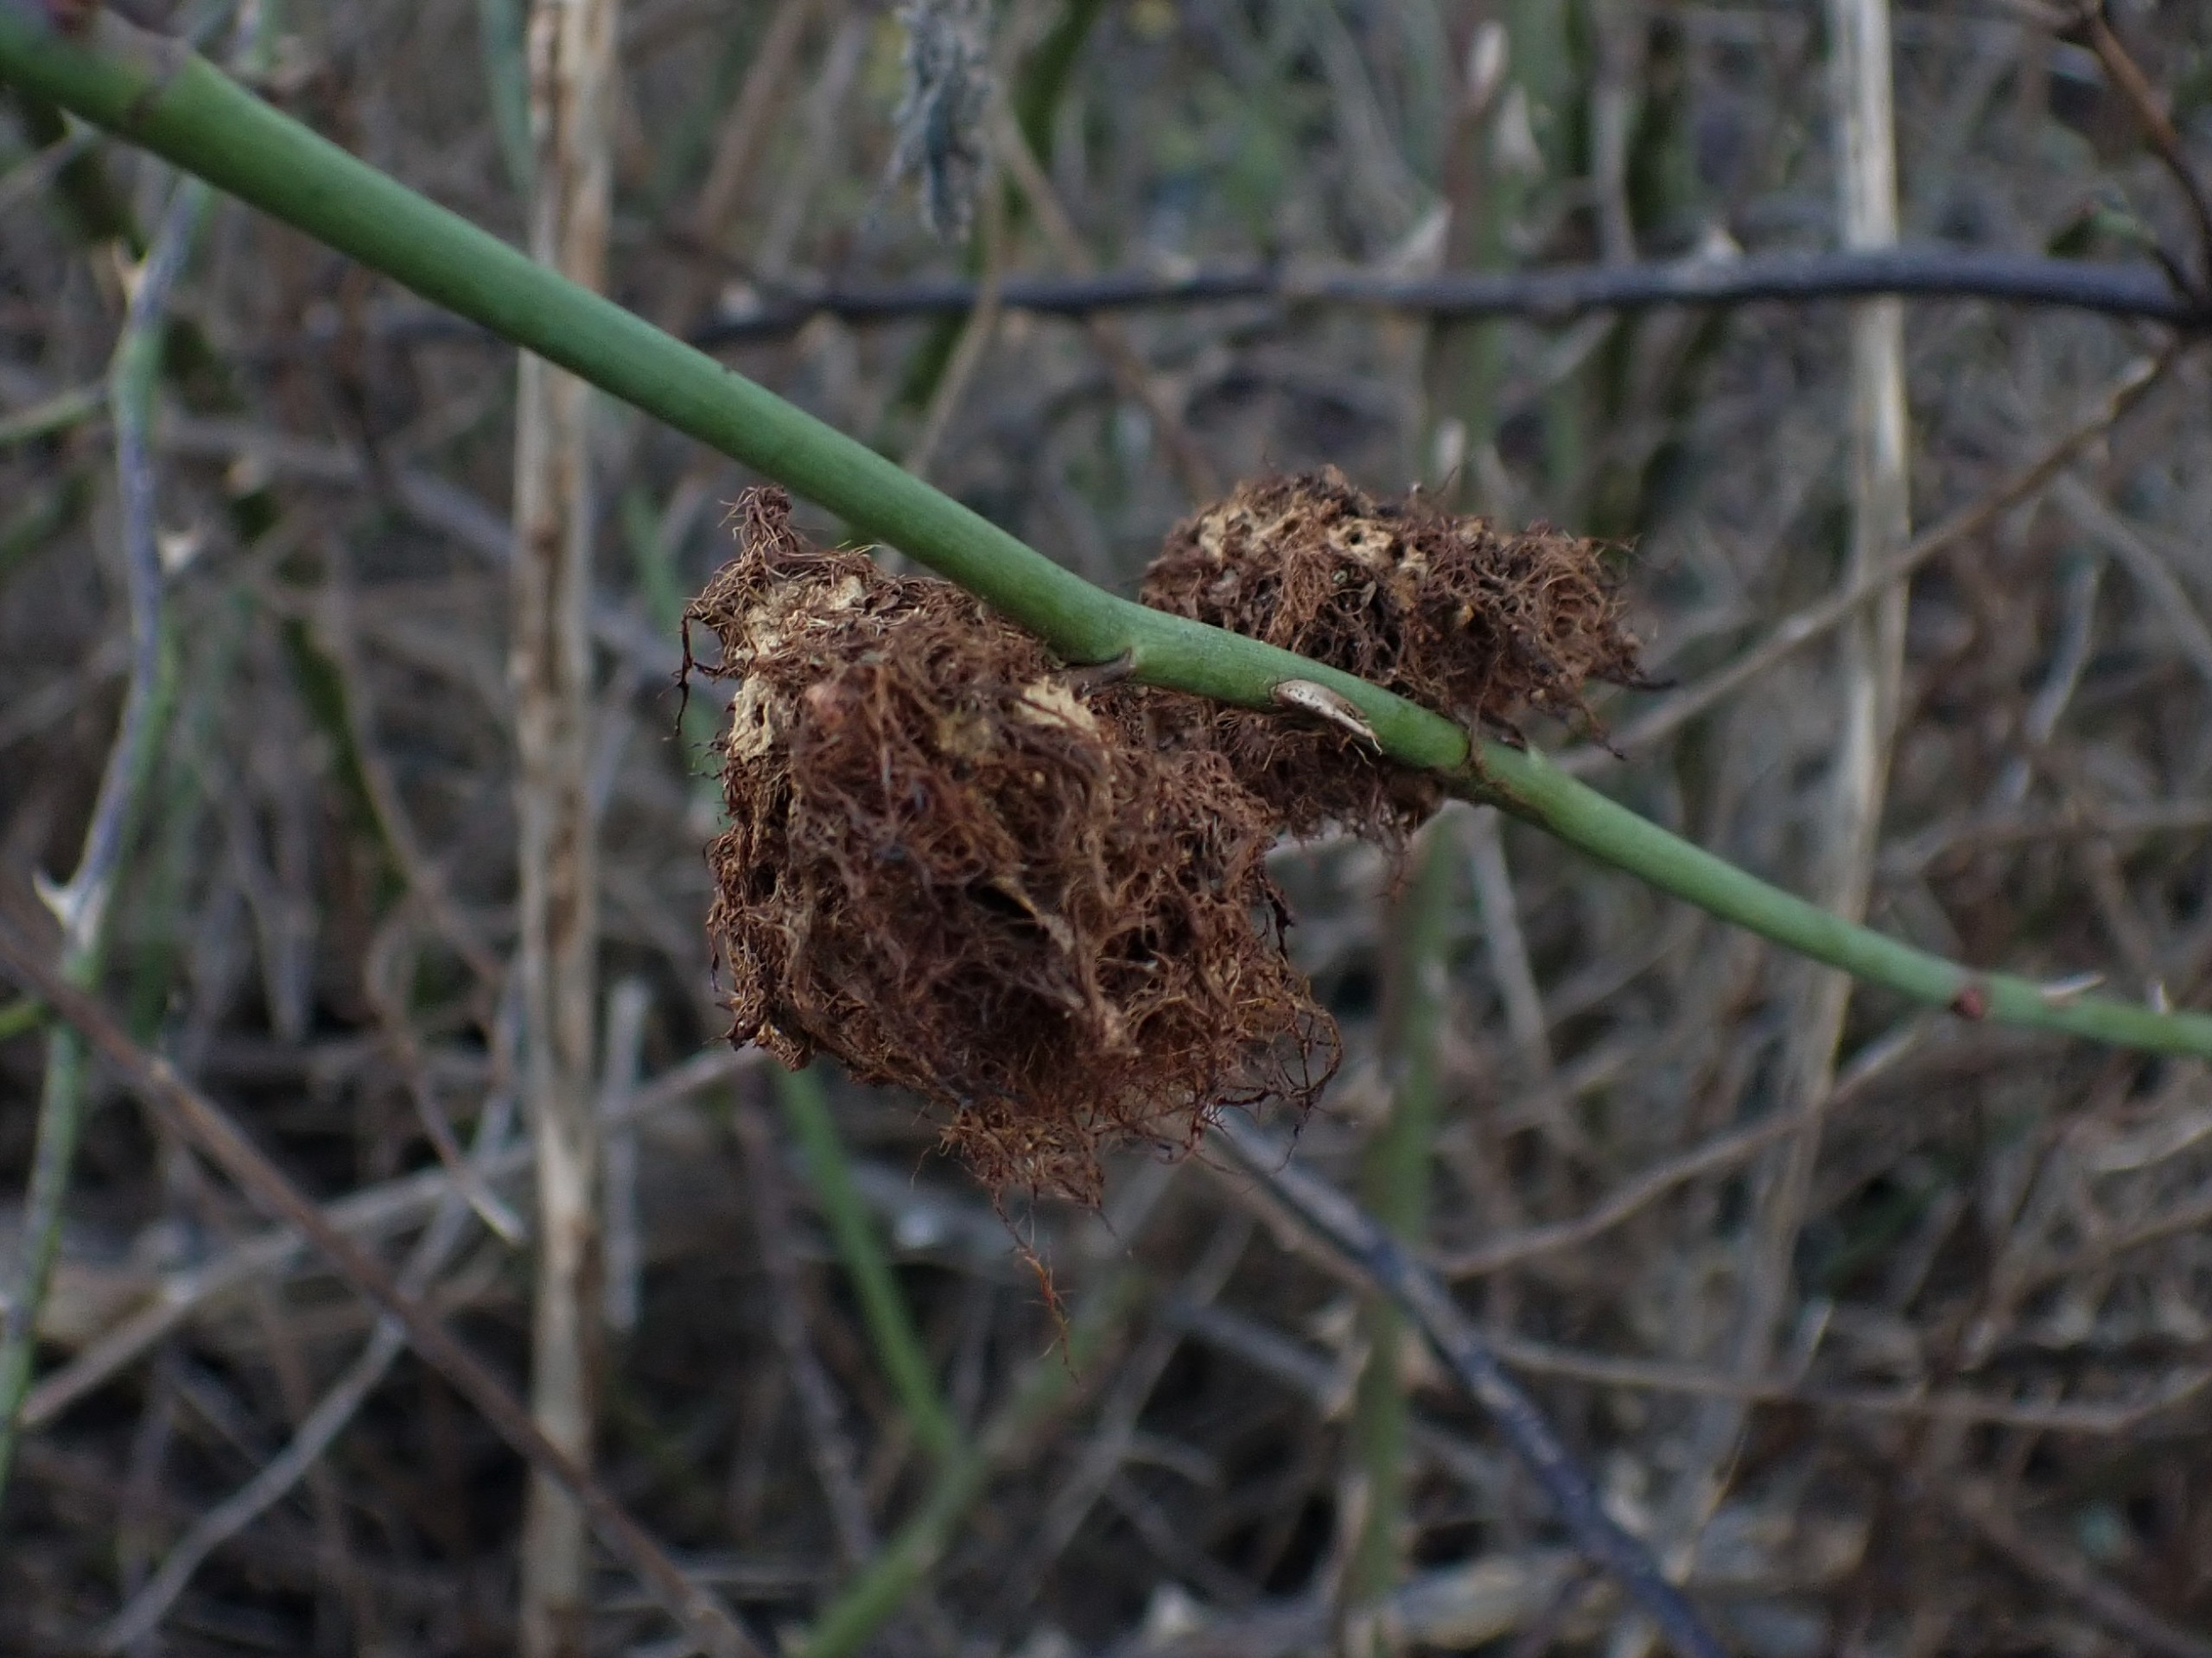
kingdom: Animalia
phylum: Arthropoda
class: Insecta
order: Hymenoptera
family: Cynipidae
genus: Diplolepis
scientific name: Diplolepis rosae
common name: Bedeguargalhveps
